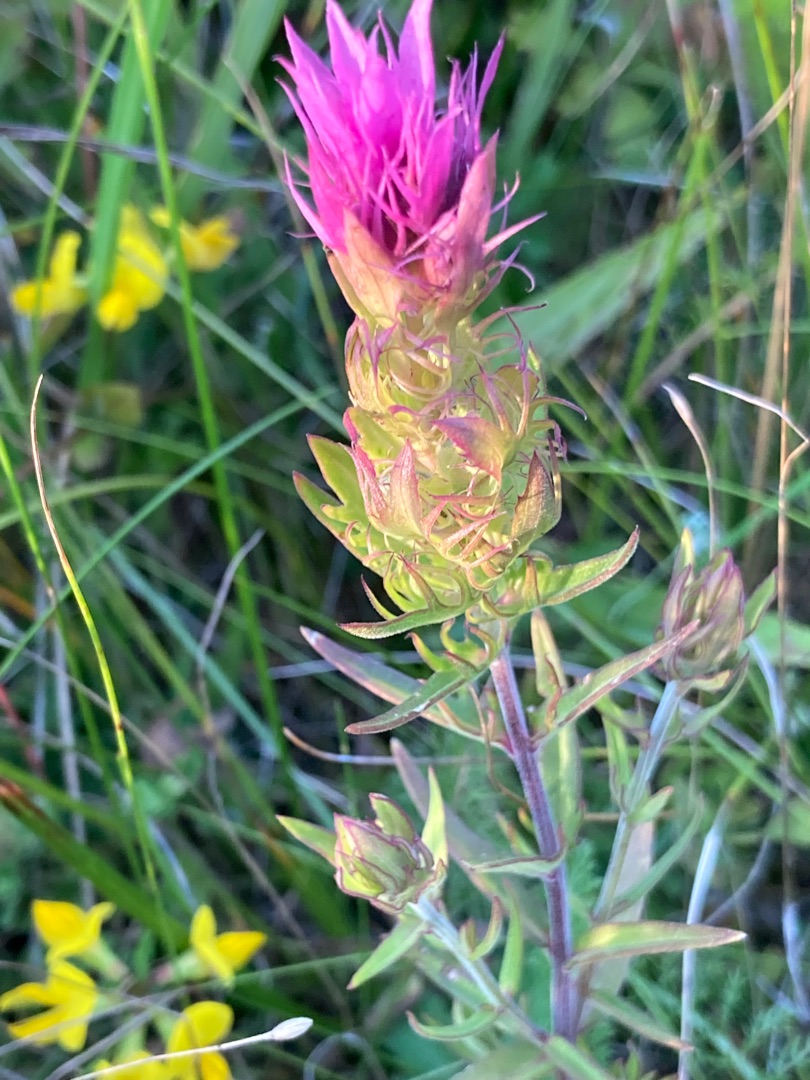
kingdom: Plantae
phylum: Tracheophyta
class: Magnoliopsida
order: Lamiales
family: Orobanchaceae
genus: Melampyrum
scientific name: Melampyrum arvense
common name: Ager-kohvede
